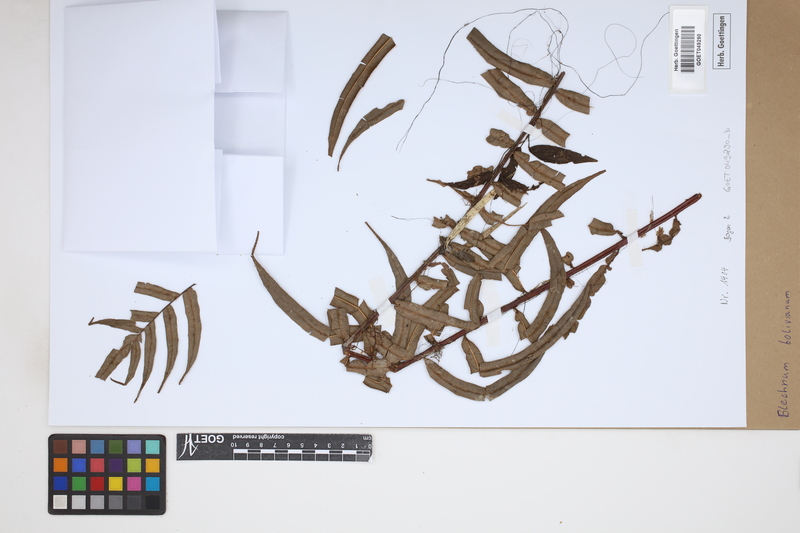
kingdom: Plantae
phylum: Tracheophyta
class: Polypodiopsida
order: Polypodiales
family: Blechnaceae
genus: Parablechnum
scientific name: Parablechnum bolivianum
